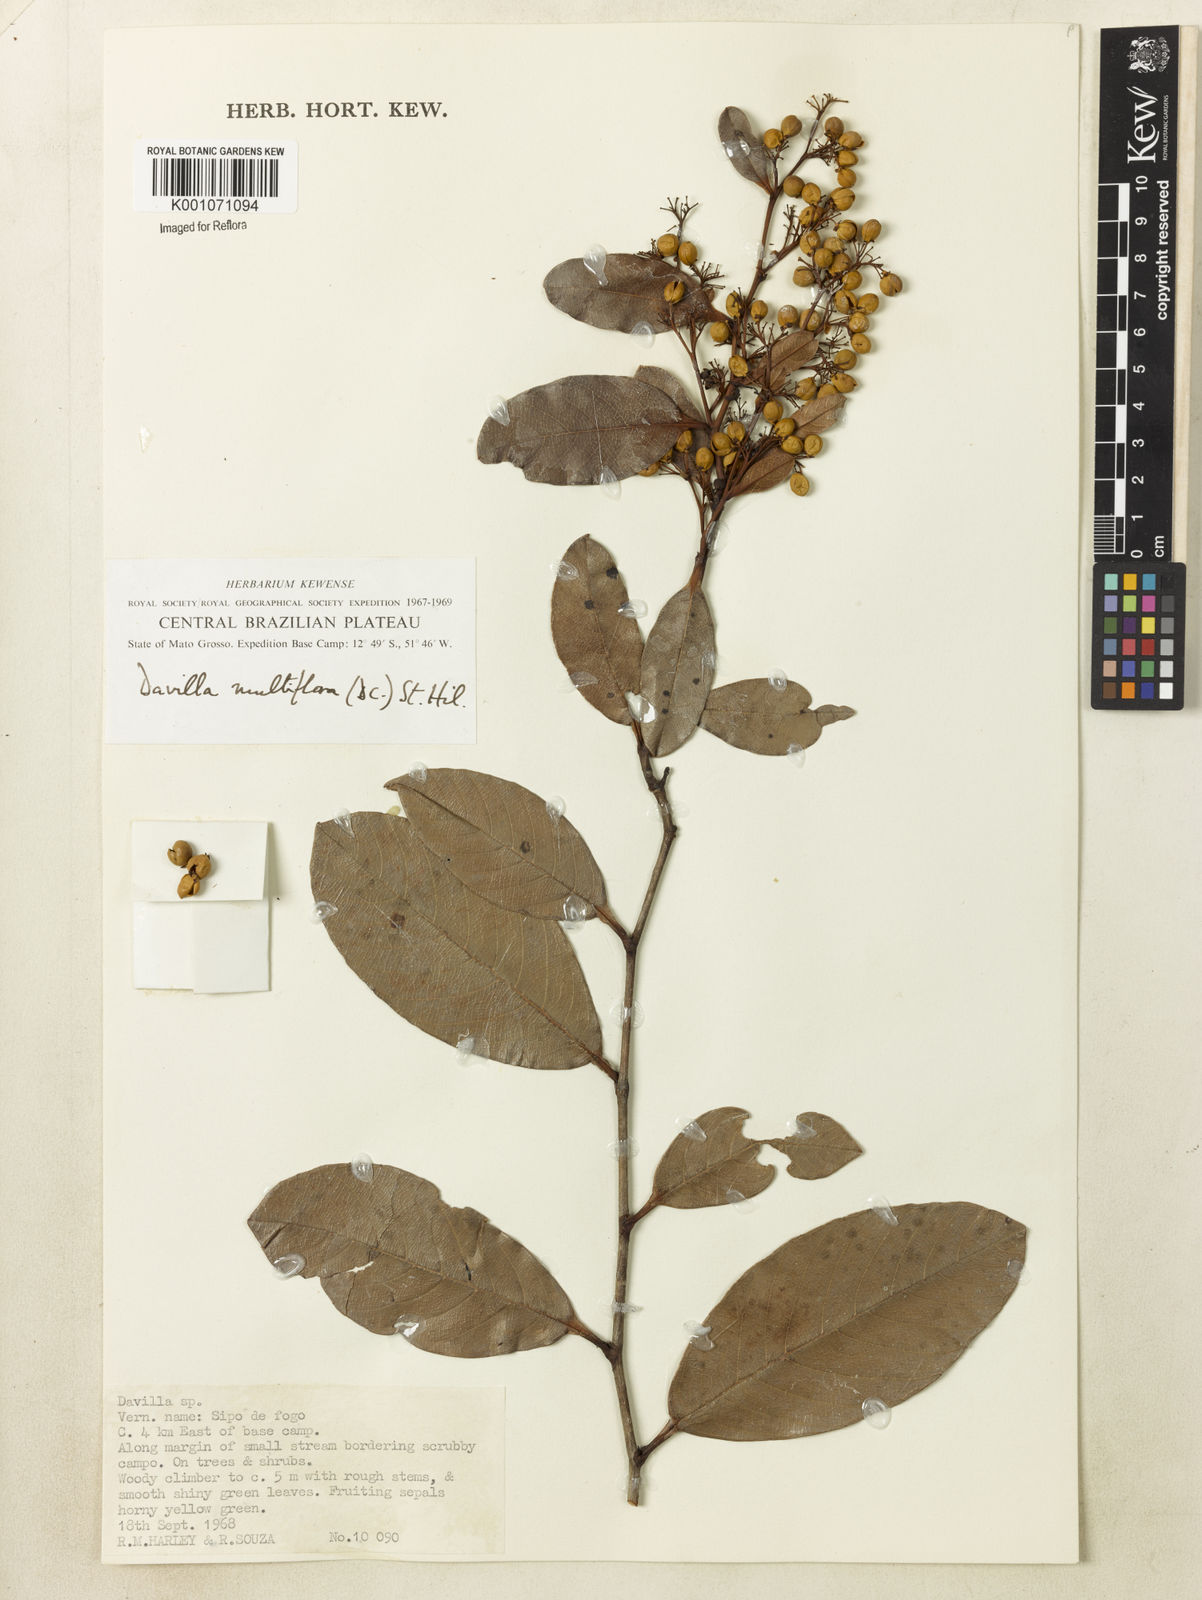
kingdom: Plantae
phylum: Tracheophyta
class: Magnoliopsida
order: Dilleniales
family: Dilleniaceae
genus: Davilla
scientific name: Davilla nitida
